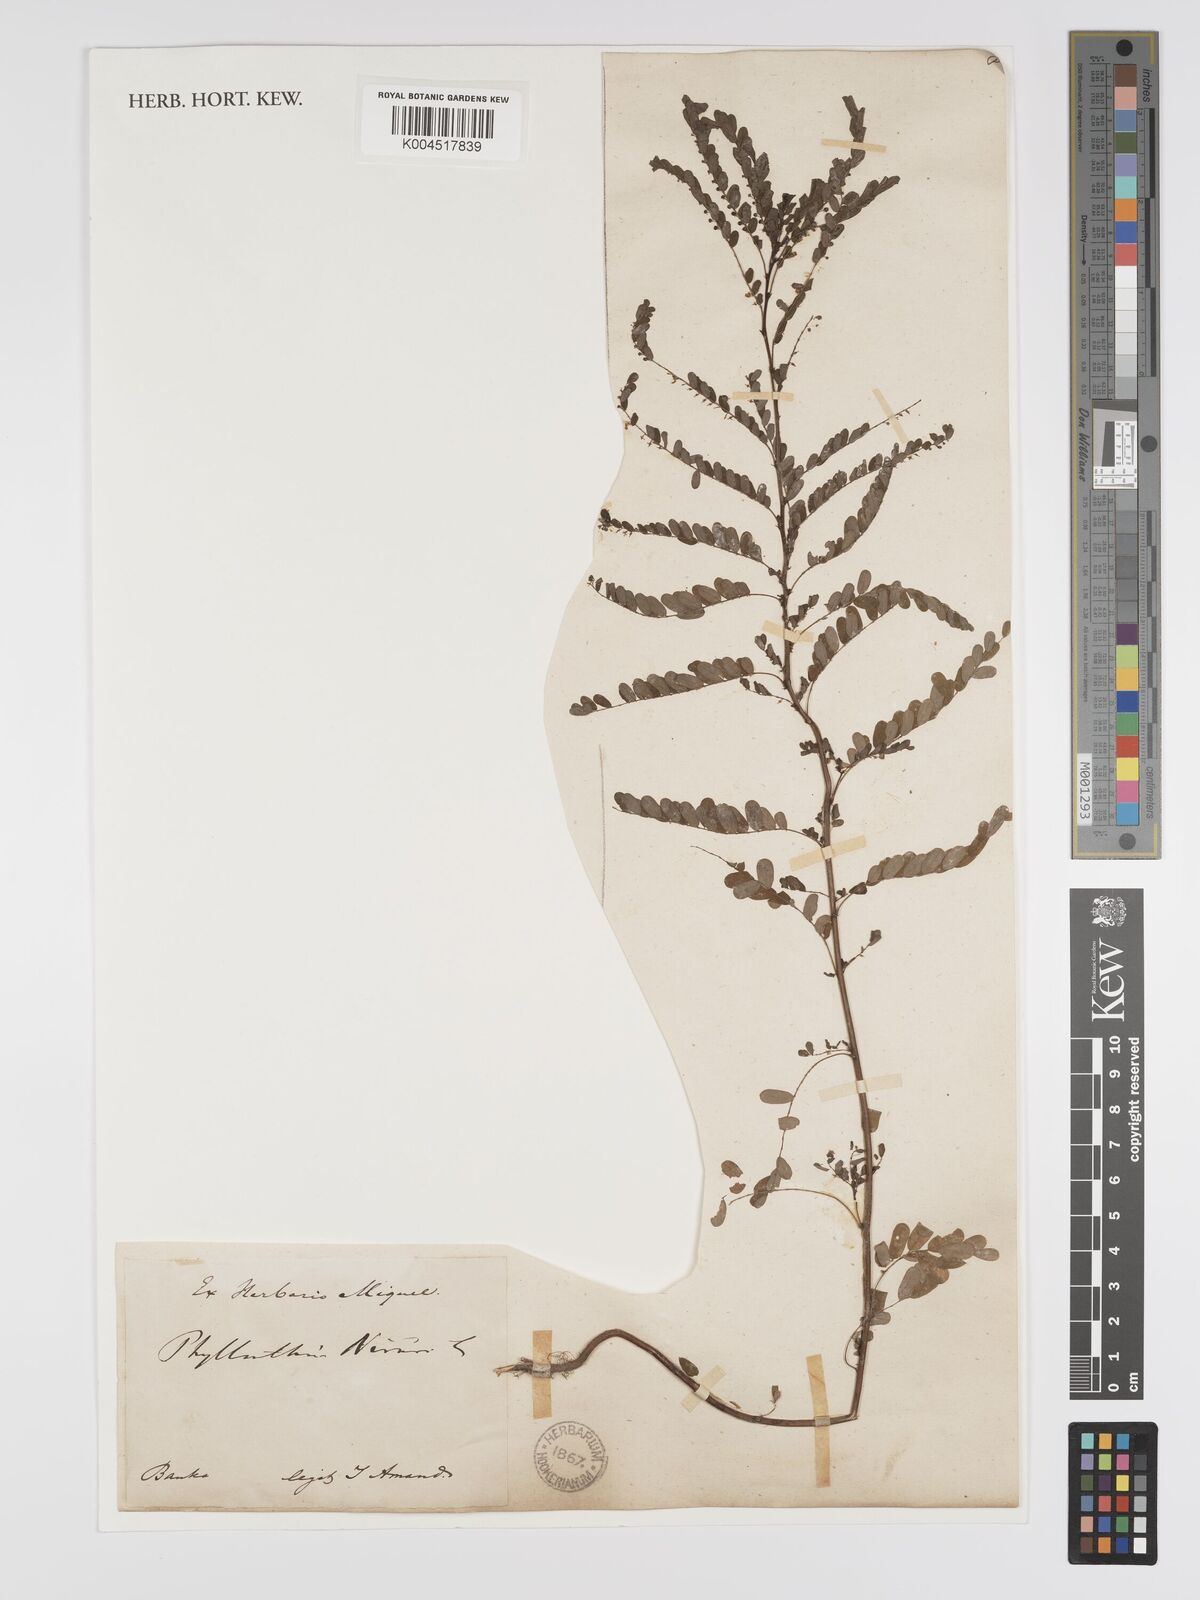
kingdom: Plantae
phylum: Tracheophyta
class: Magnoliopsida
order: Malpighiales
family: Phyllanthaceae
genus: Phyllanthus
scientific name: Phyllanthus niruri
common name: Niruri
